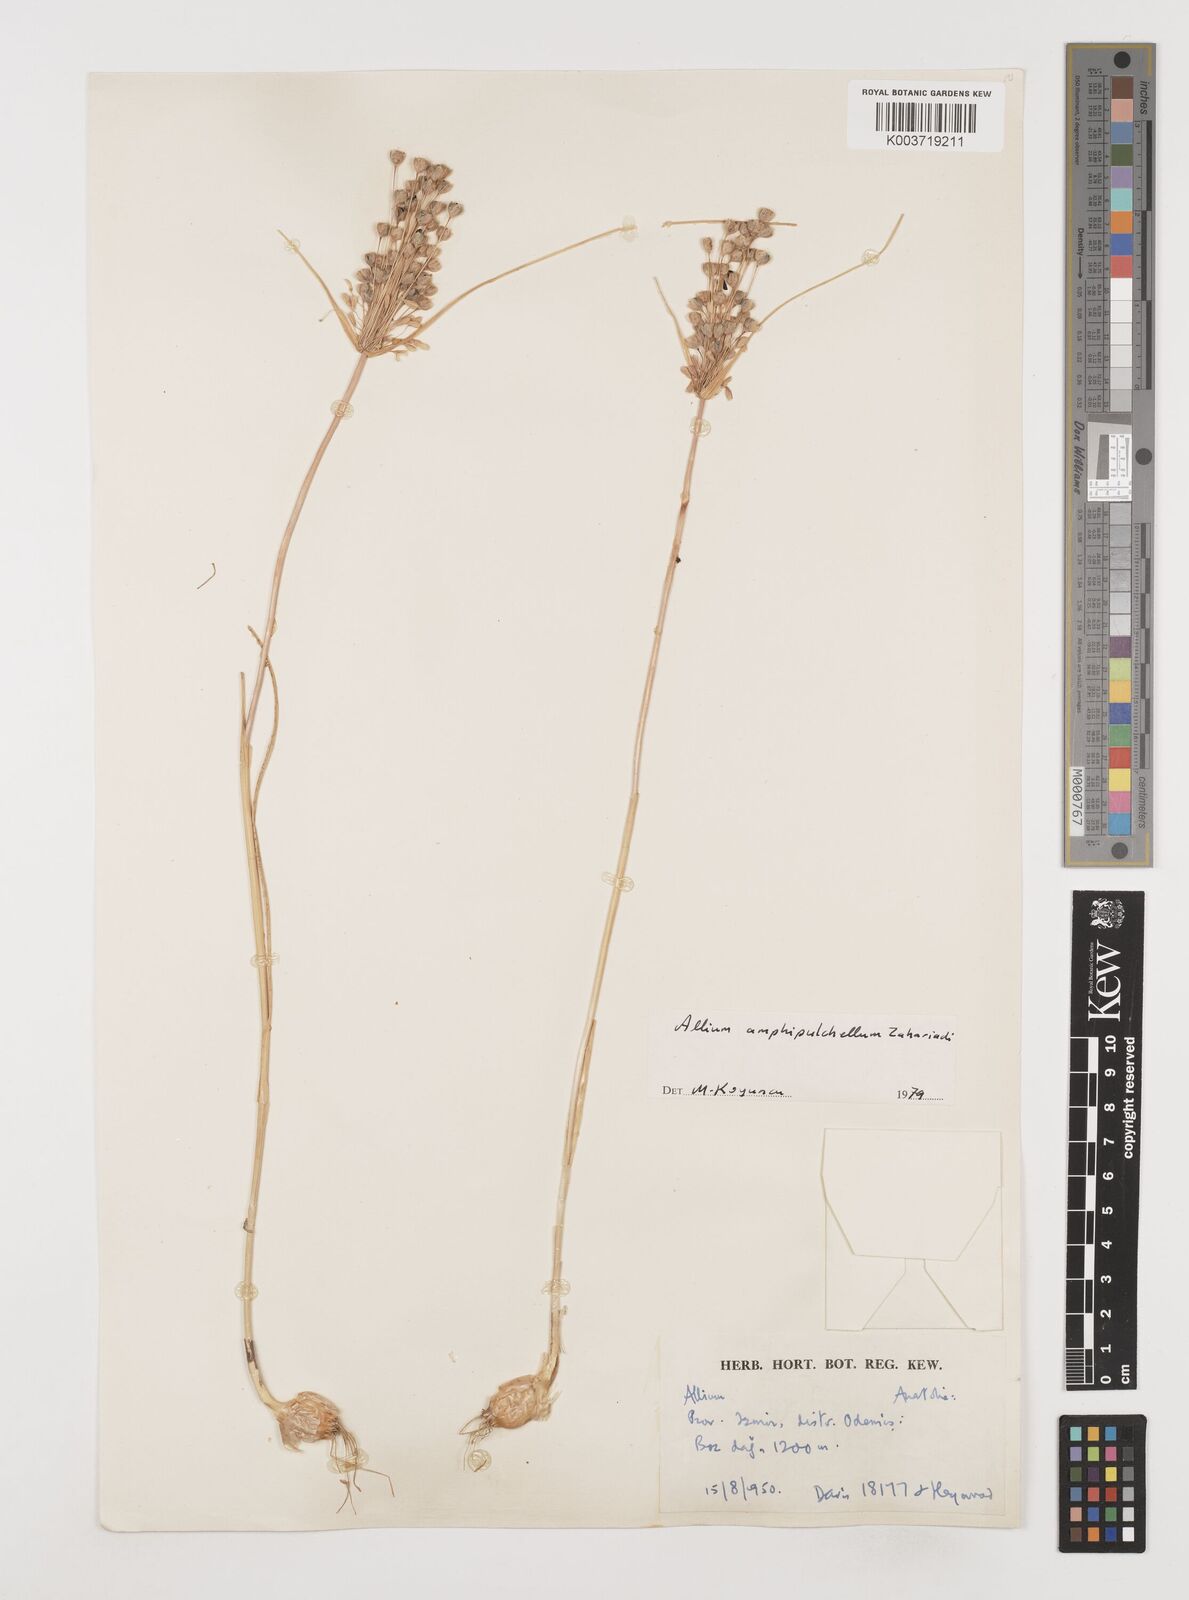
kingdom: Plantae
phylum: Tracheophyta
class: Liliopsida
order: Asparagales
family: Amaryllidaceae
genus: Allium
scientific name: Allium flavum
